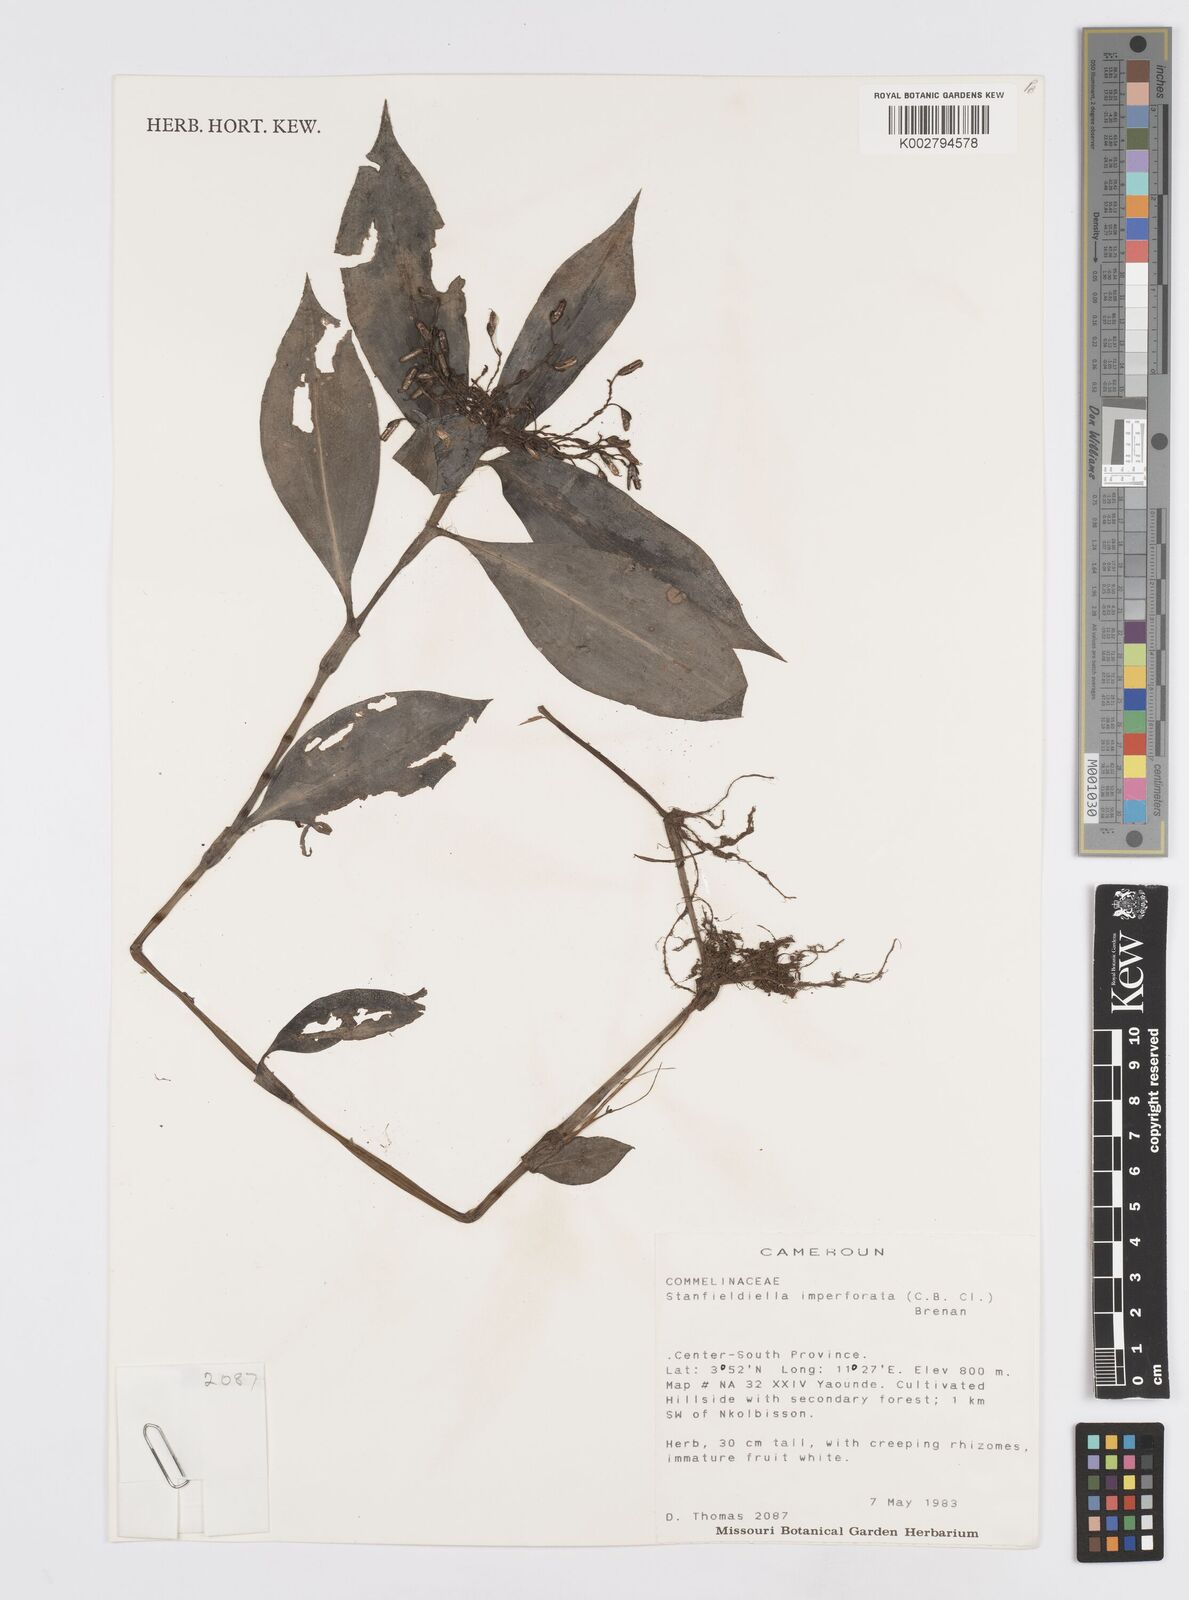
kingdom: Plantae
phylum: Tracheophyta
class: Liliopsida
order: Commelinales
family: Commelinaceae
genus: Stanfieldiella
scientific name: Stanfieldiella imperforata
